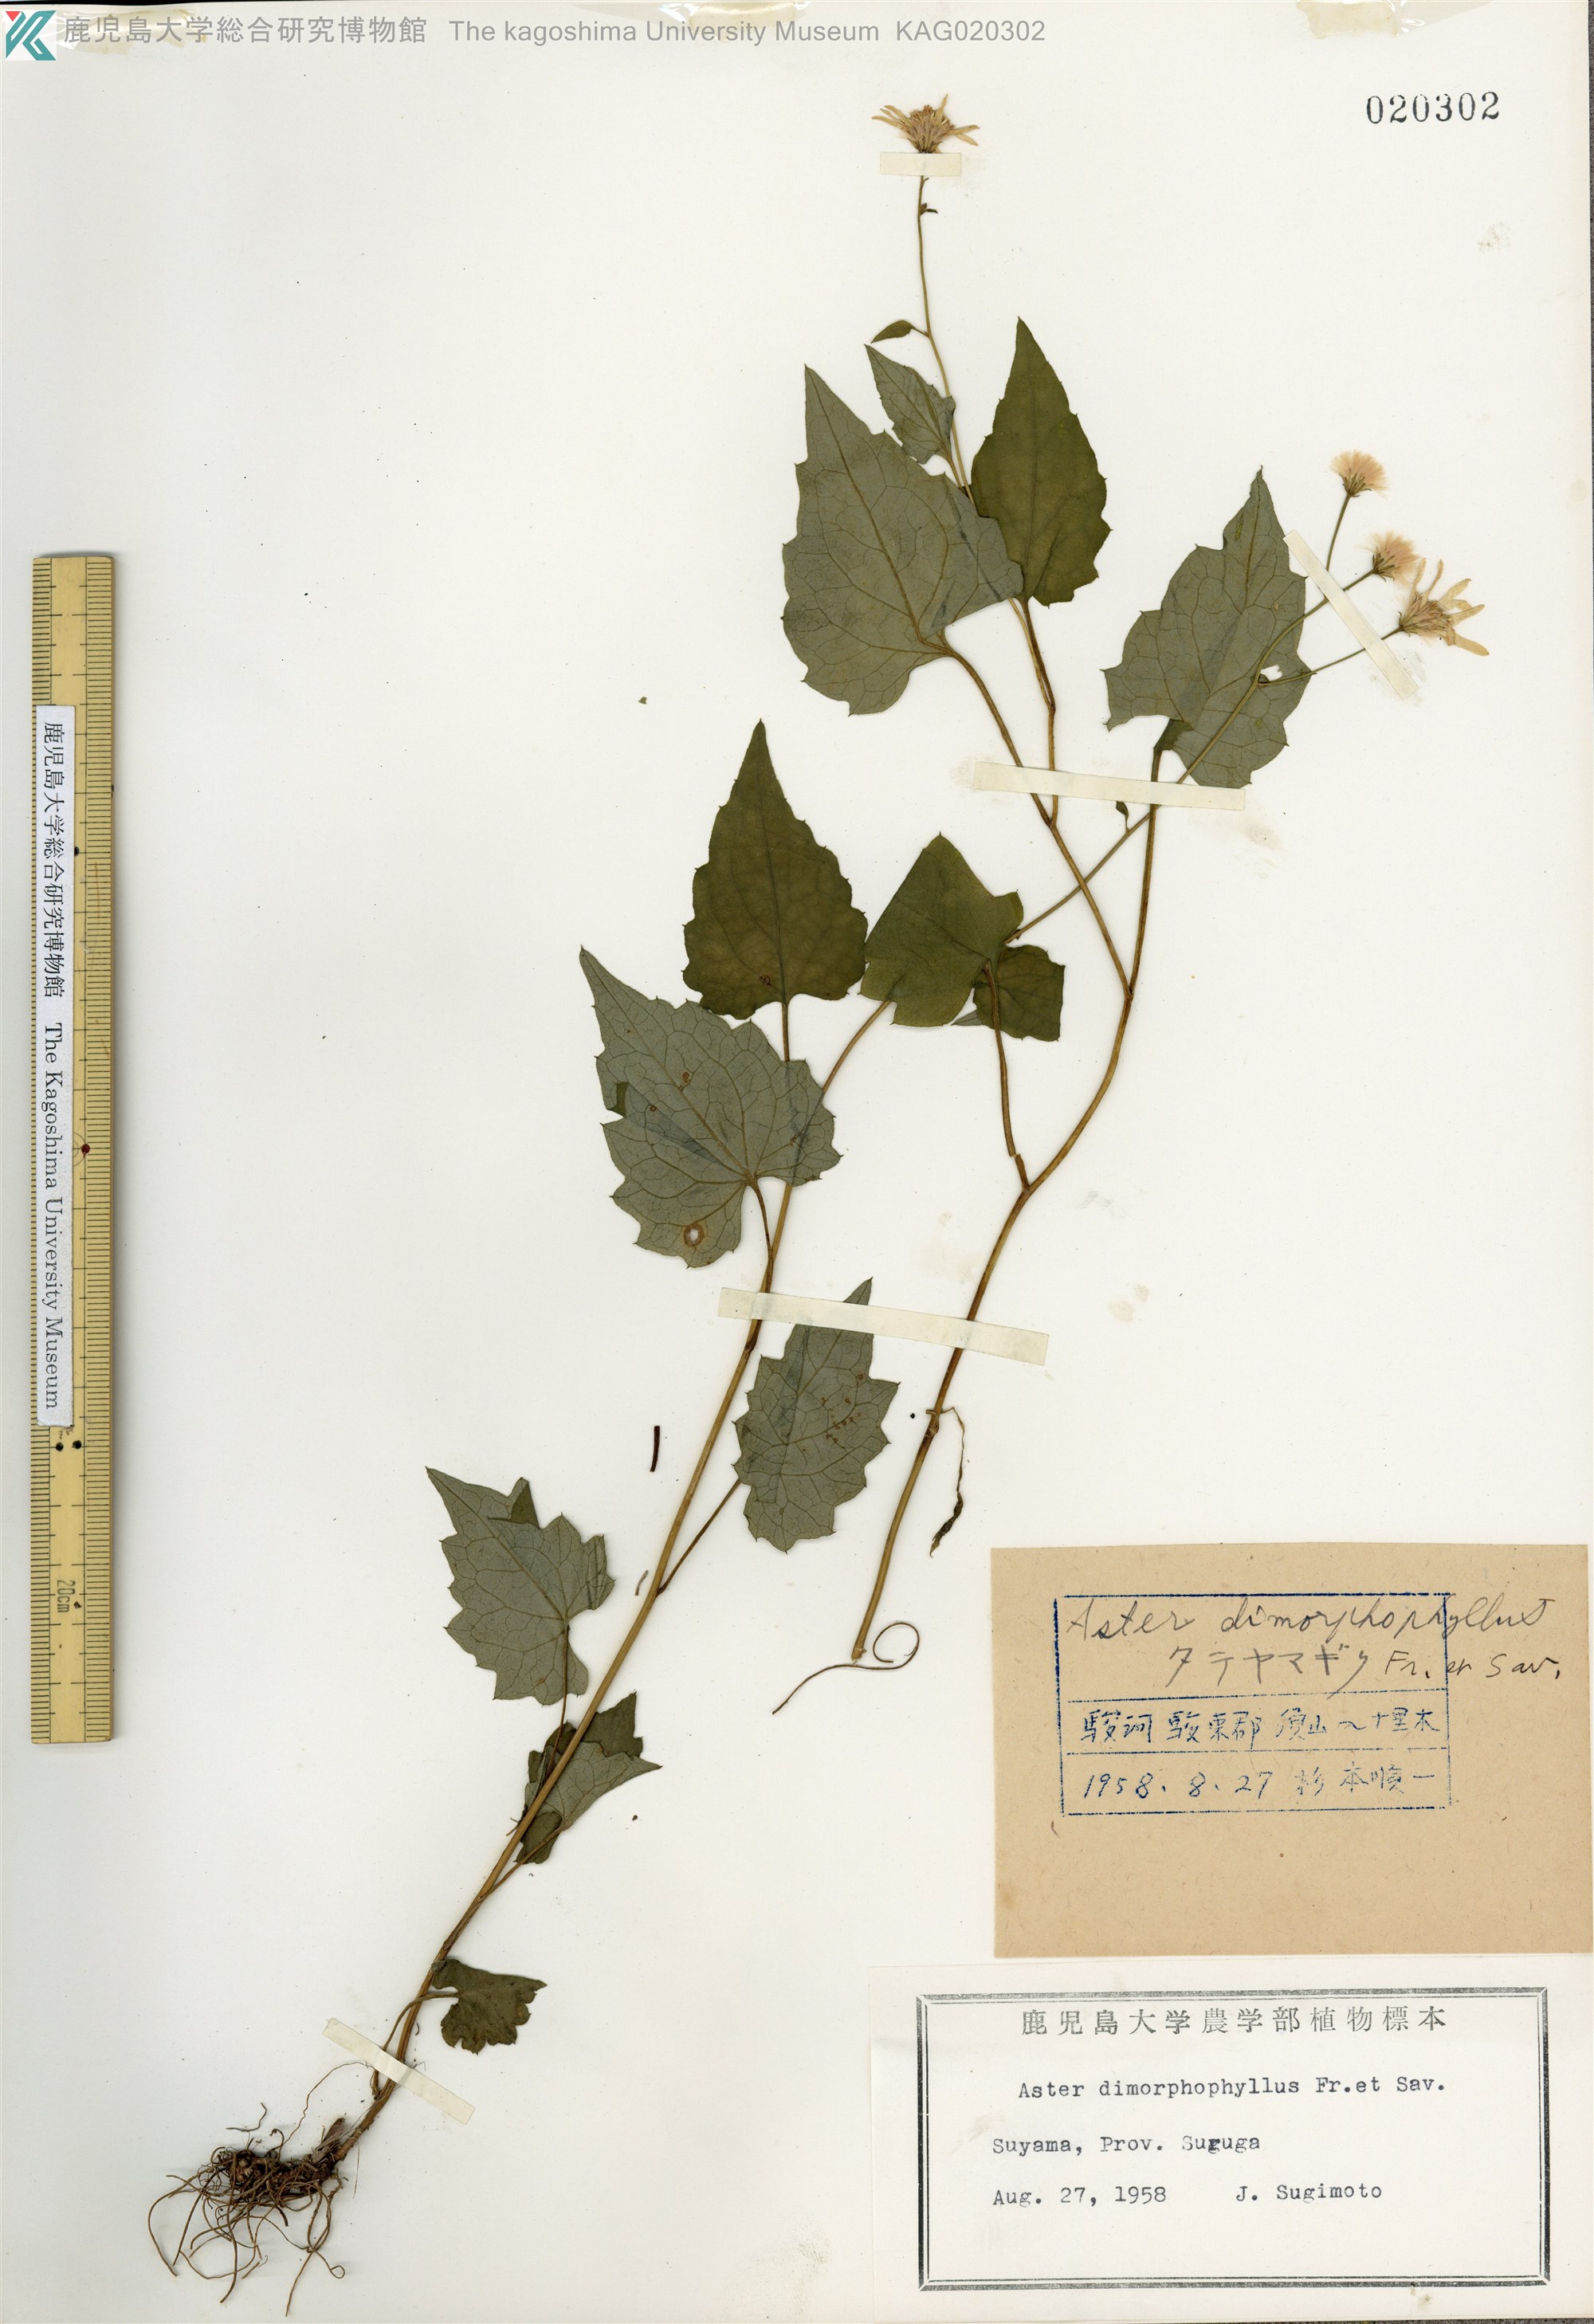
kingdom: Plantae
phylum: Tracheophyta
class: Magnoliopsida
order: Asterales
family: Asteraceae
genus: Cardiagyris
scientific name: Cardiagyris dimorphophylla
